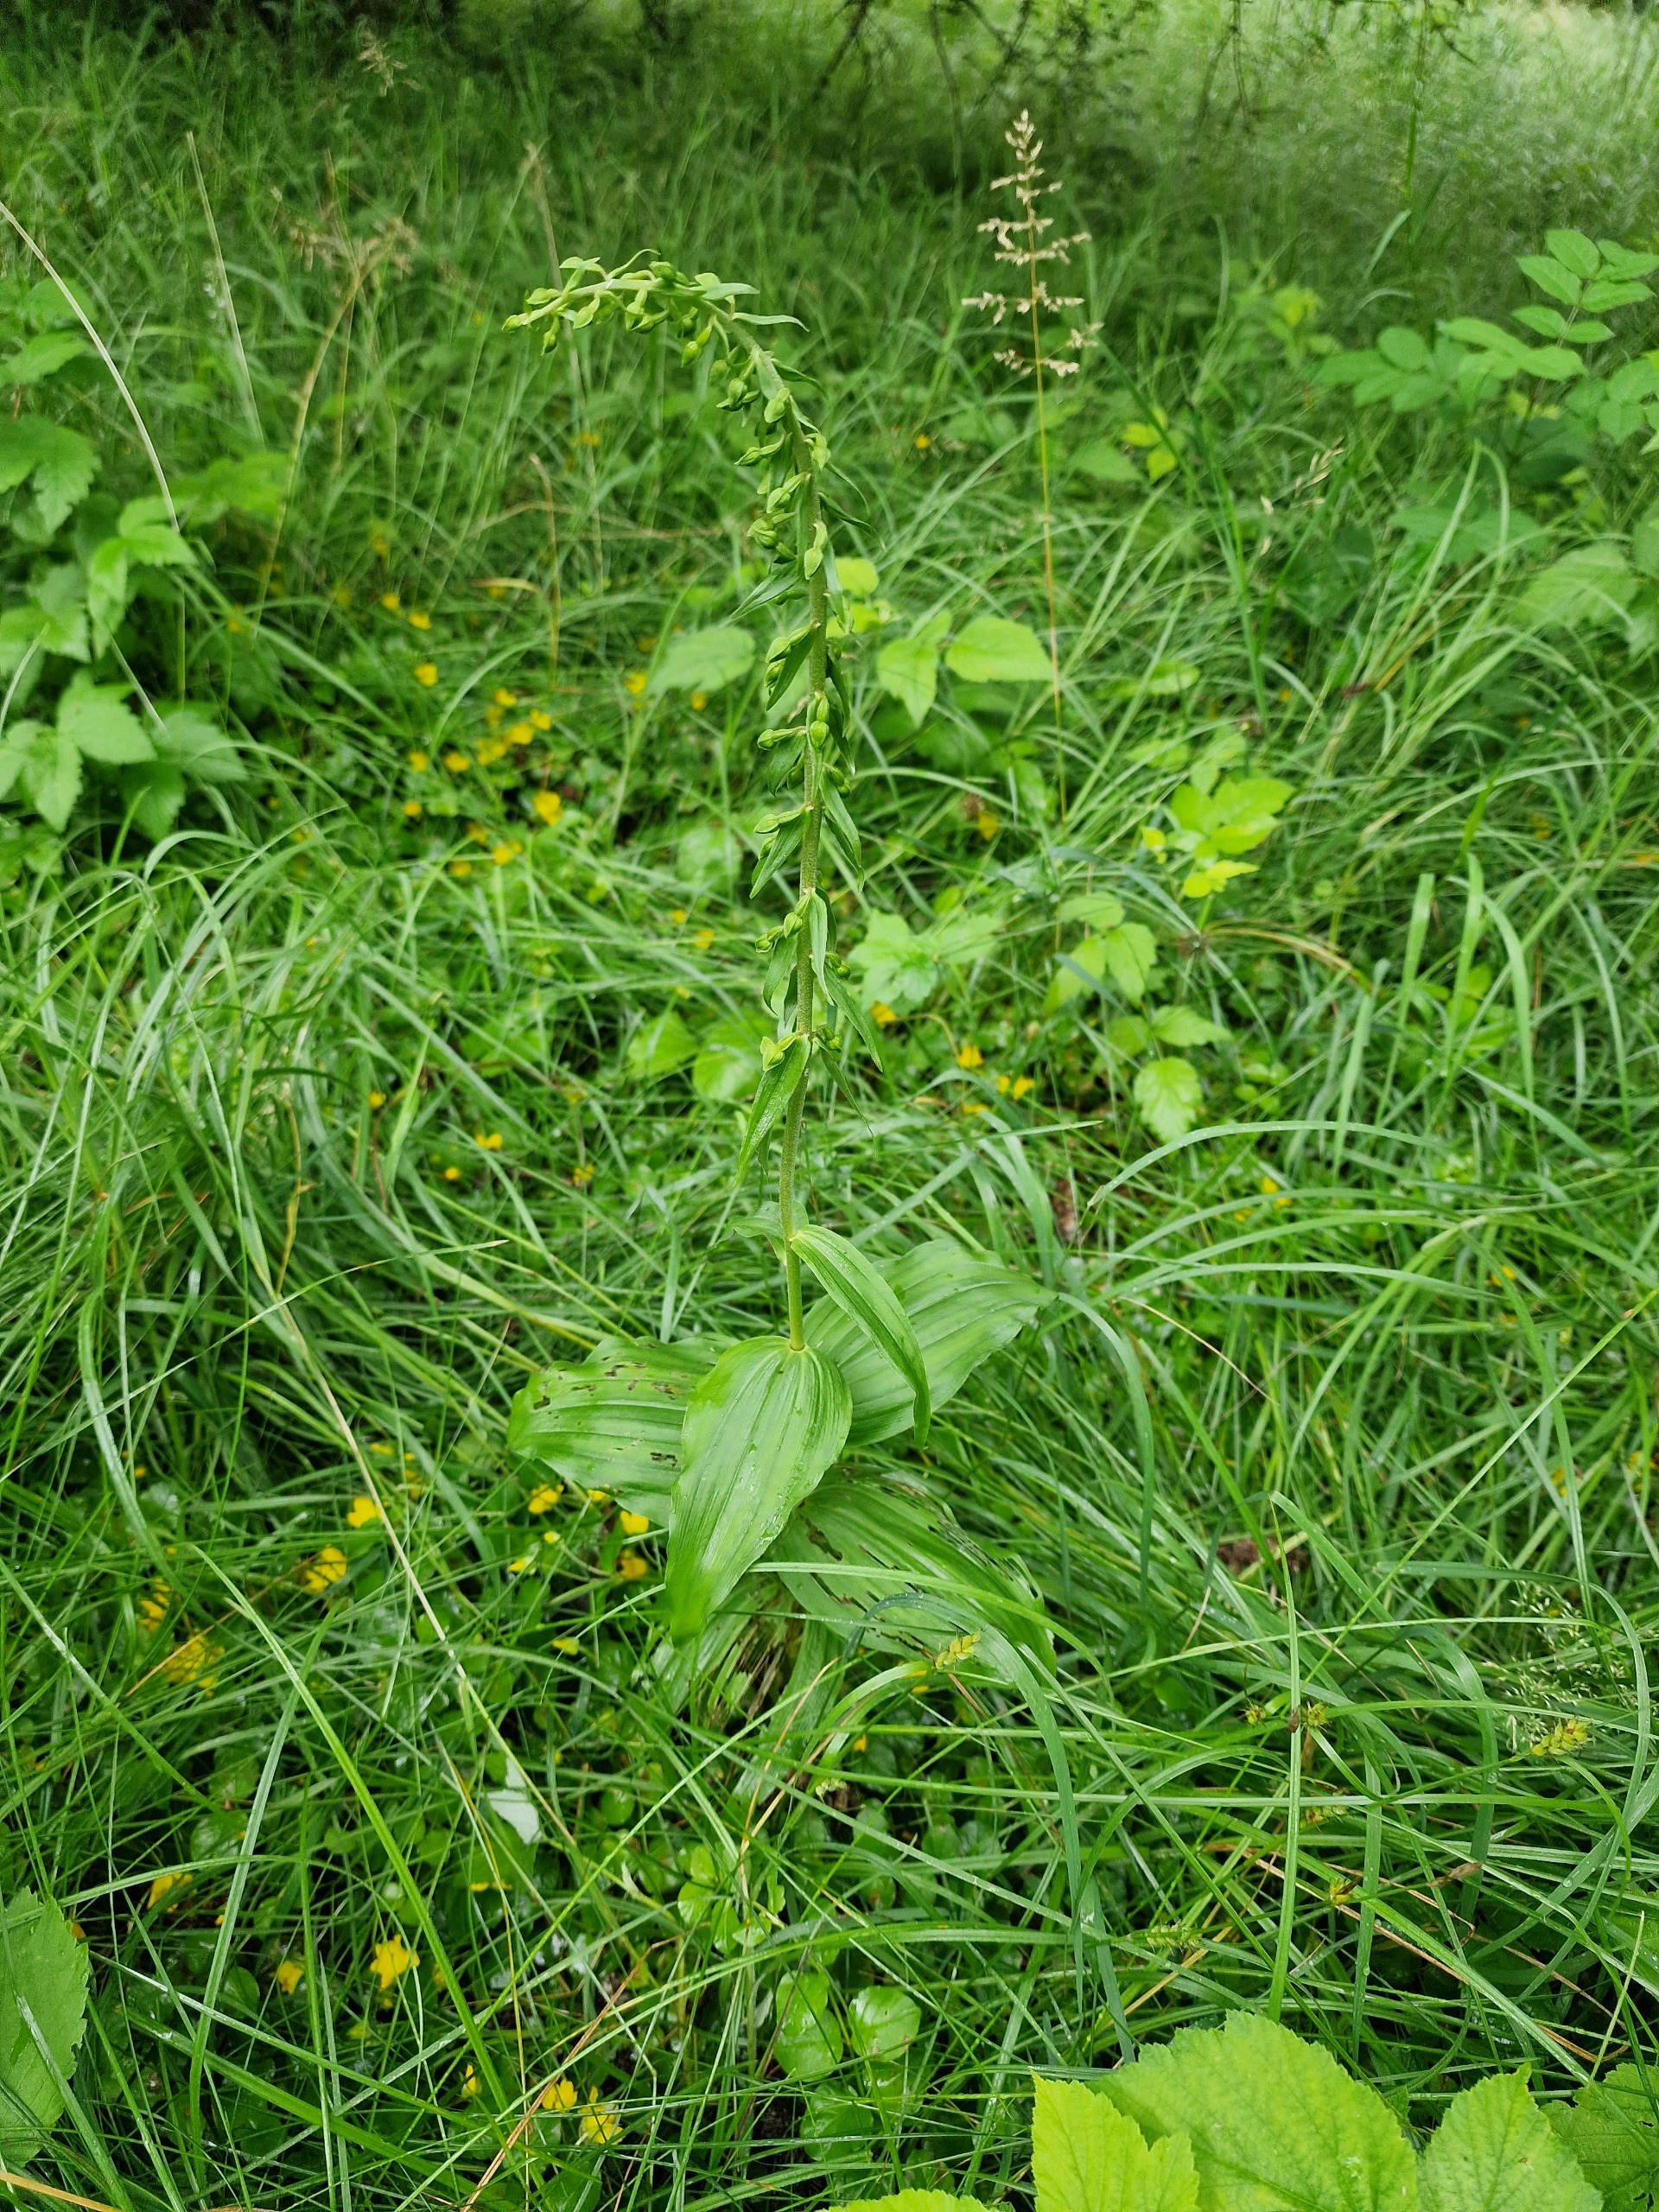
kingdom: Plantae
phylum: Tracheophyta
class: Liliopsida
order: Asparagales
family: Orchidaceae
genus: Epipactis
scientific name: Epipactis helleborine
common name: Skov-hullæbe
